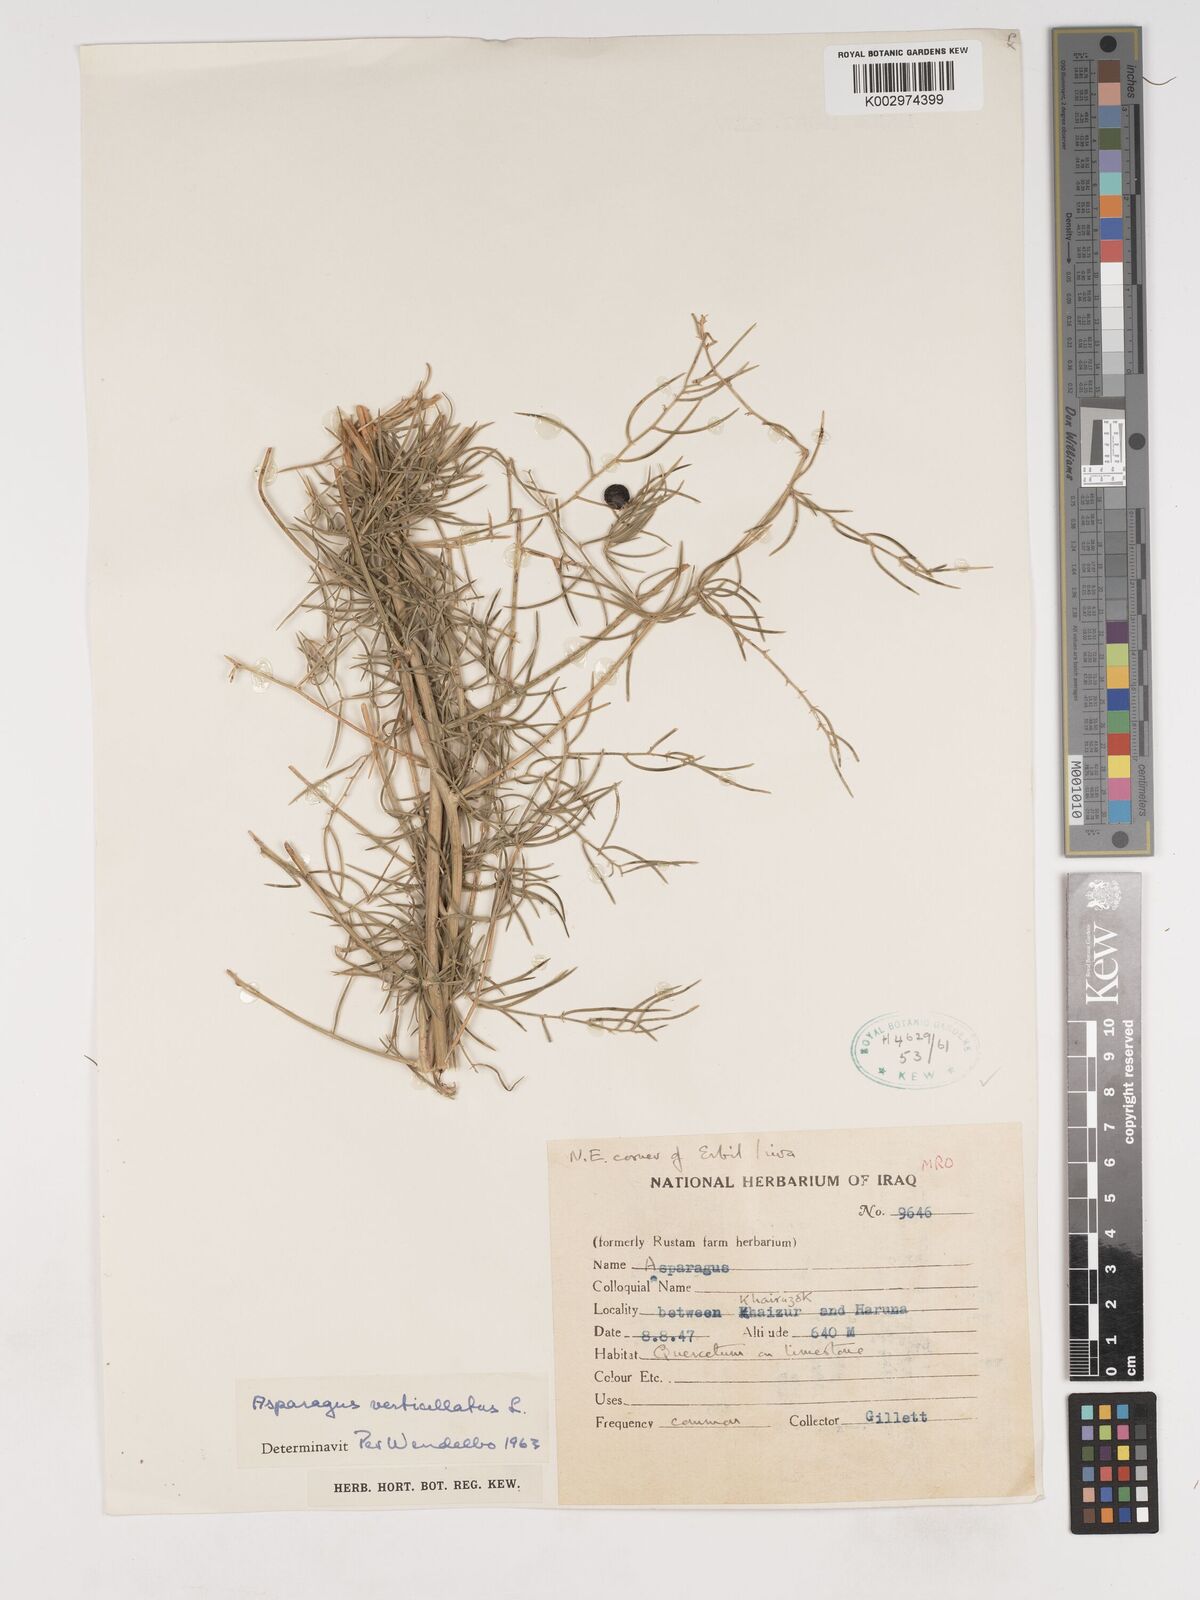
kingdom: Plantae
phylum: Tracheophyta
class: Liliopsida
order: Asparagales
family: Asparagaceae
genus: Asparagus
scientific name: Asparagus verticillatus
